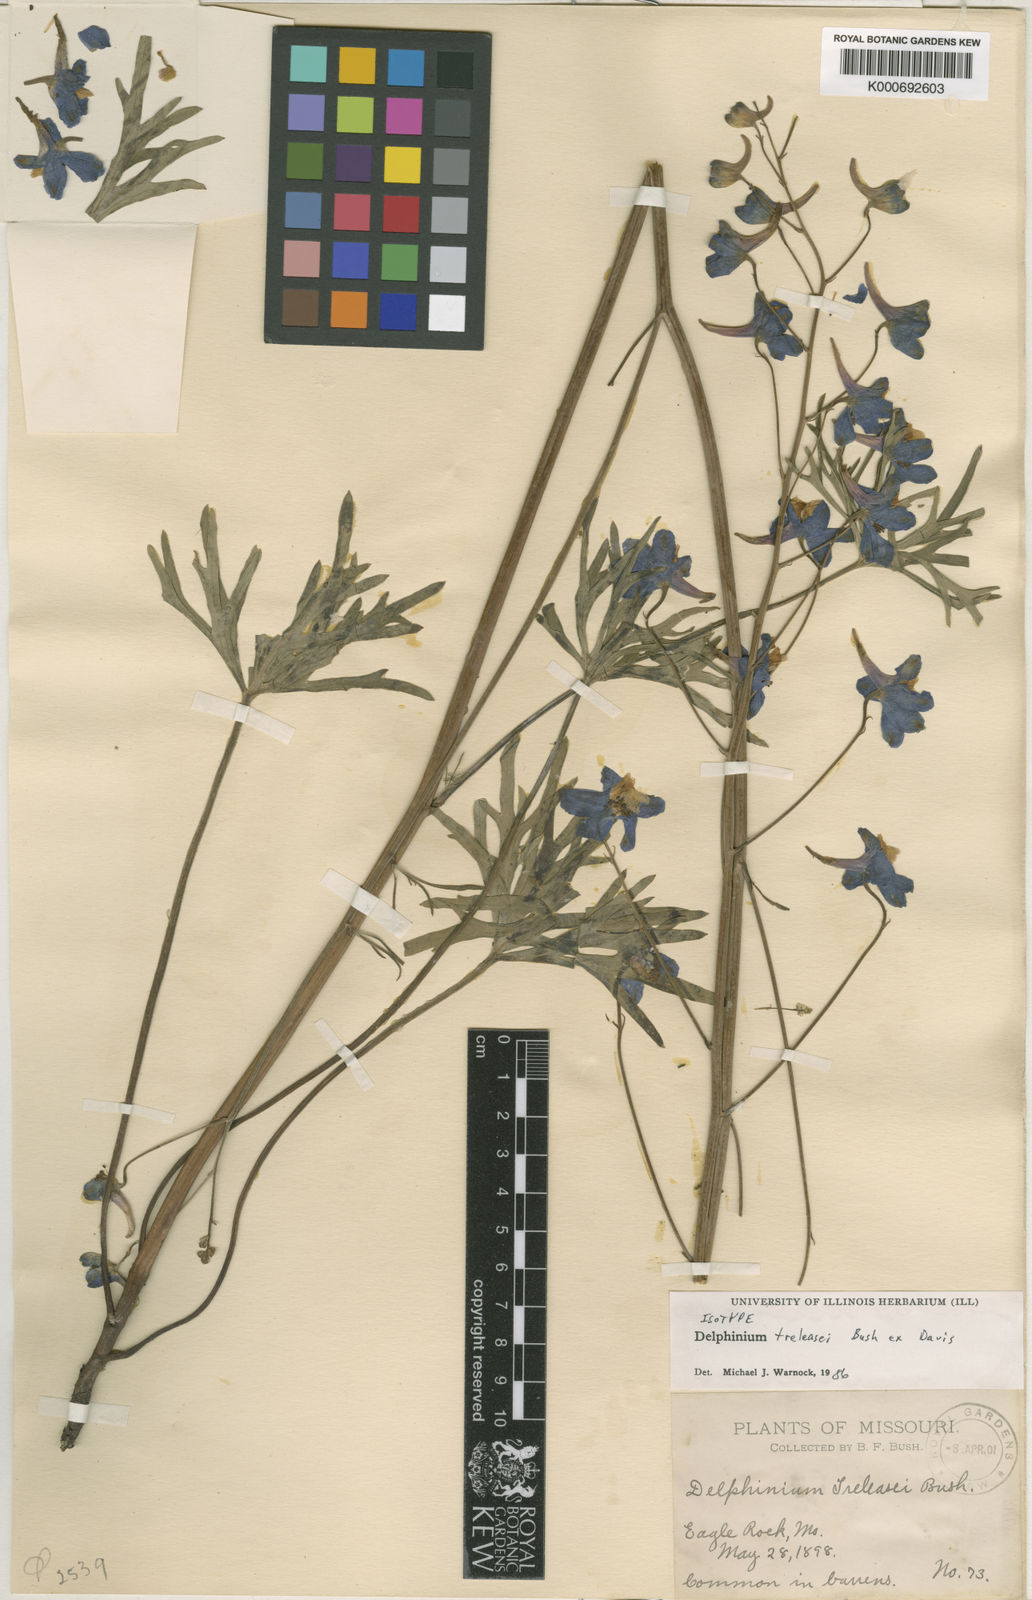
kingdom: Plantae
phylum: Tracheophyta
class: Magnoliopsida
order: Ranunculales
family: Ranunculaceae
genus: Delphinium
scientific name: Delphinium
